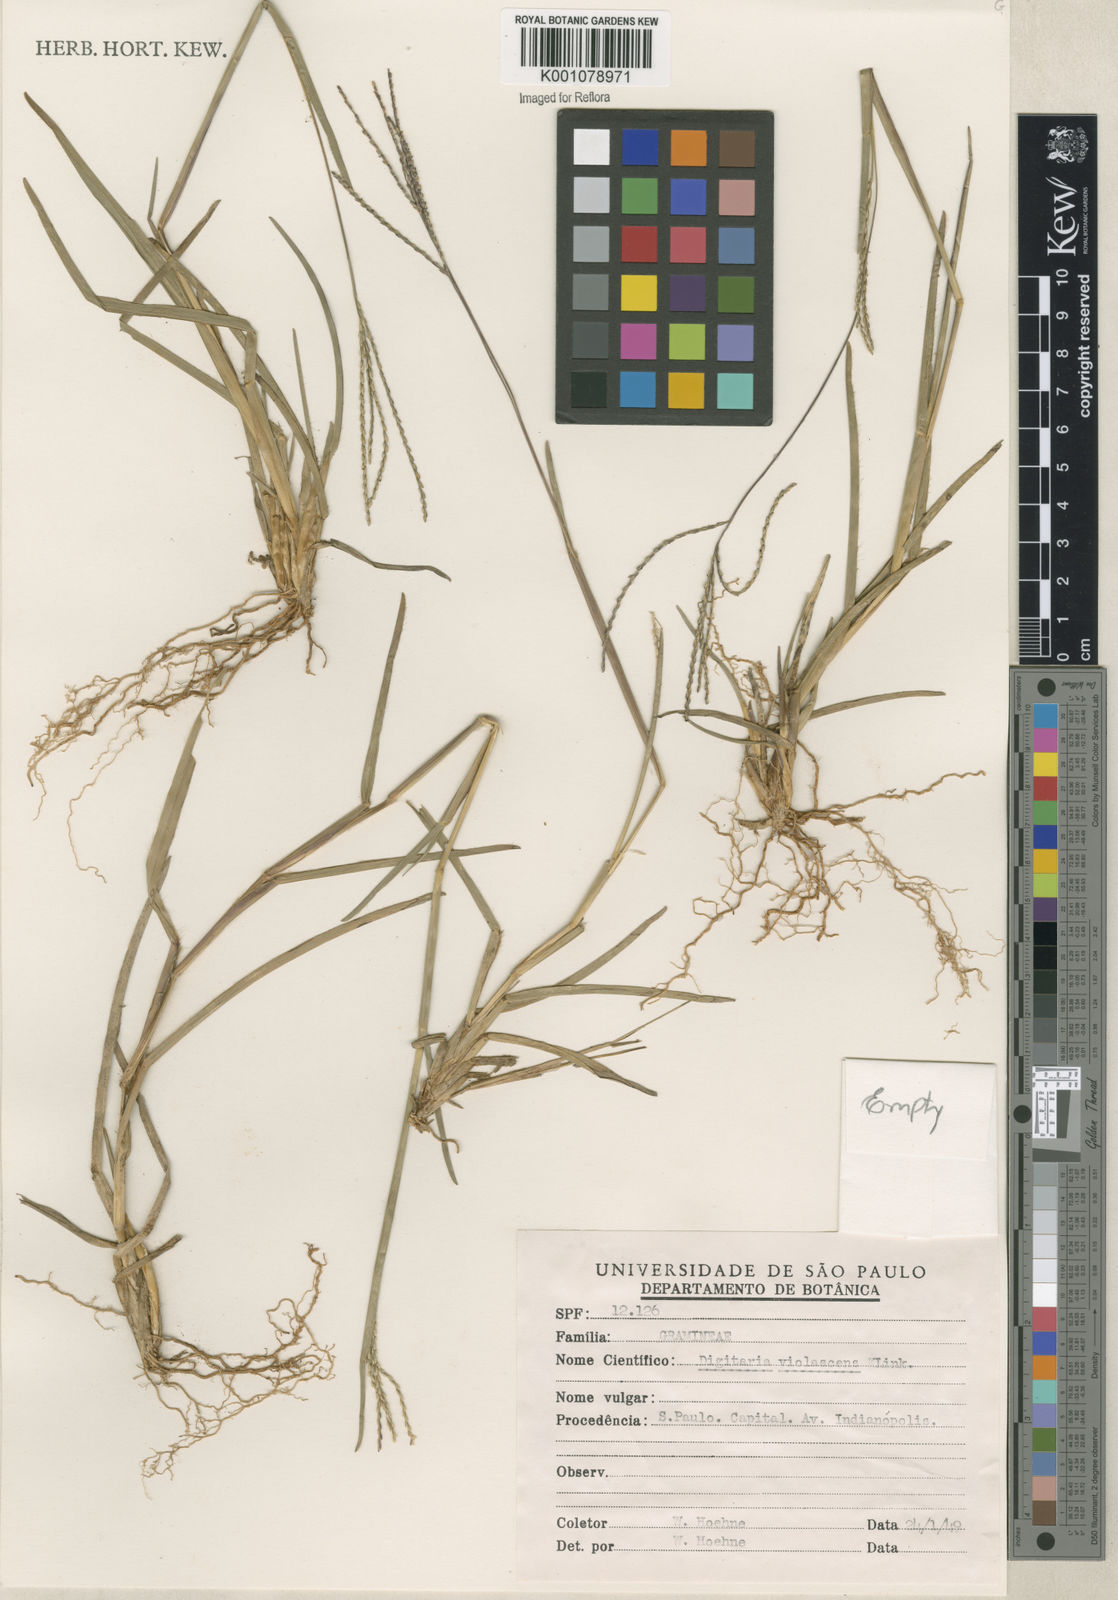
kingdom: Plantae
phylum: Tracheophyta
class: Liliopsida
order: Poales
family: Poaceae
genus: Axonopus
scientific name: Axonopus fissifolius
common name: Common carpetgrass
